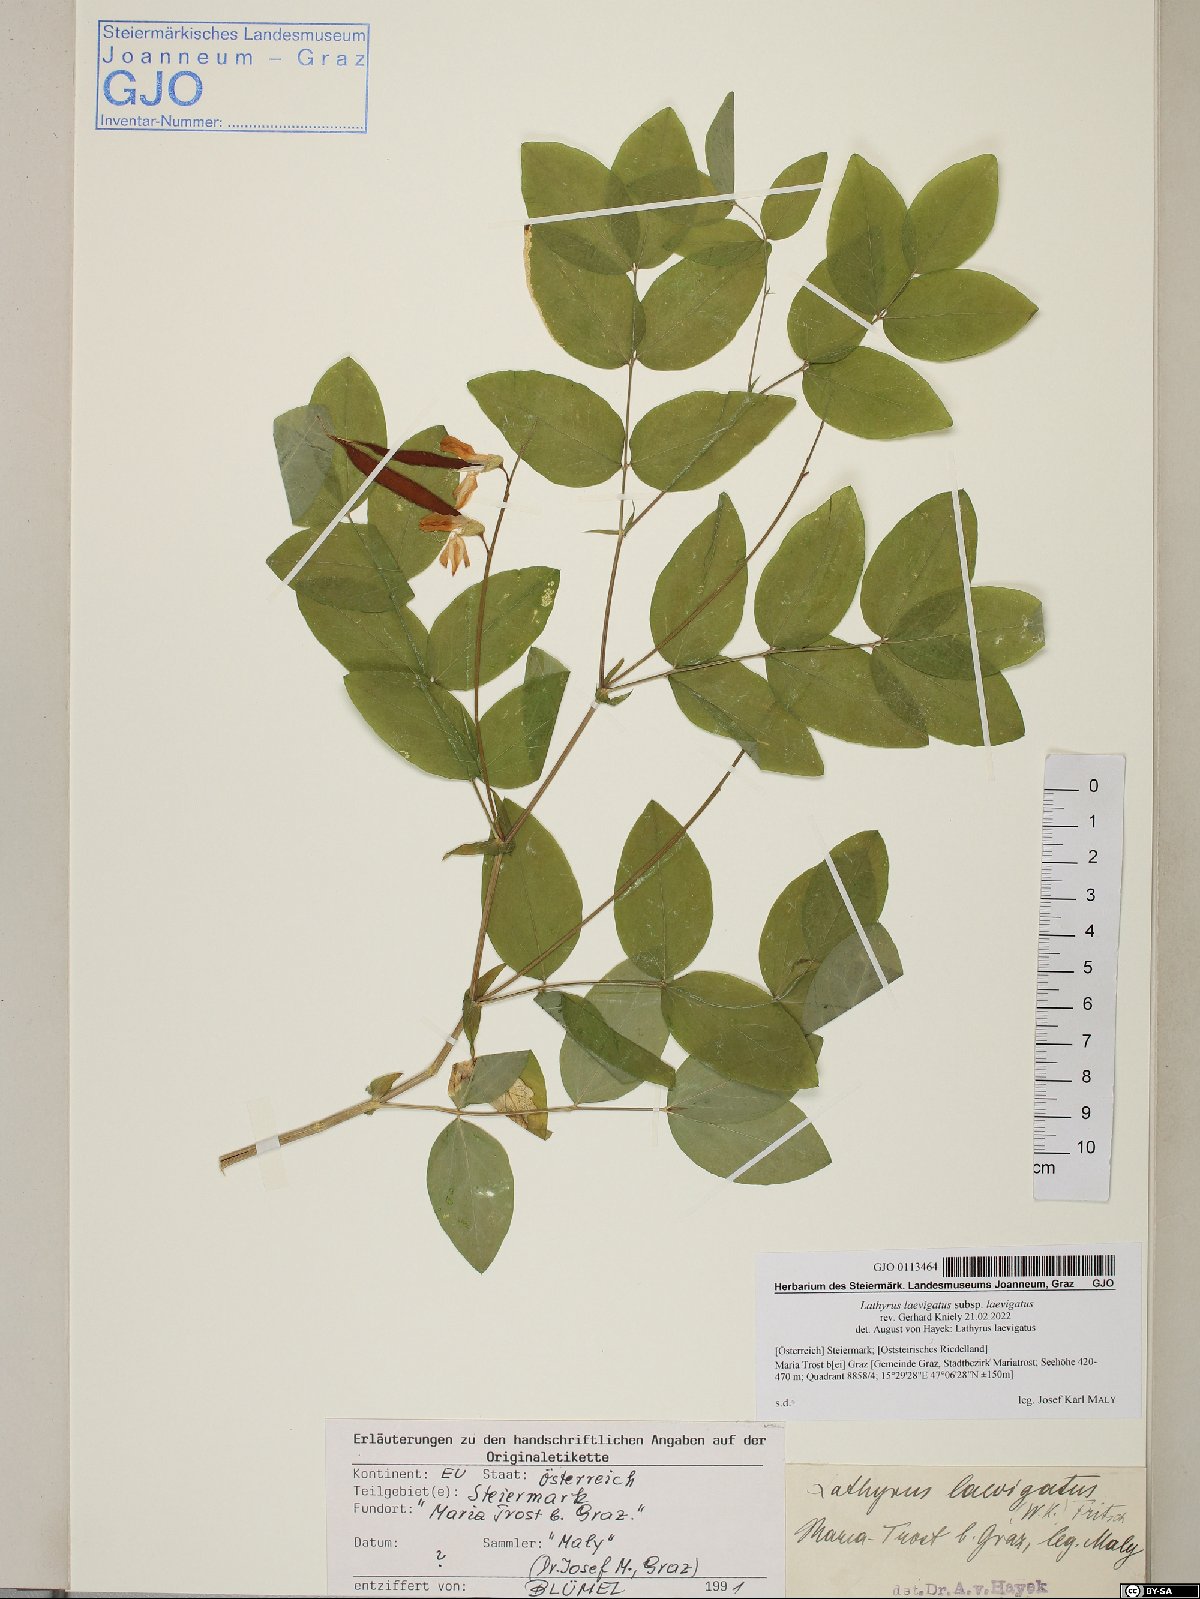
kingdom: Plantae
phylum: Tracheophyta
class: Magnoliopsida
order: Fabales
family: Fabaceae
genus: Lathyrus
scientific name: Lathyrus laevigatus
